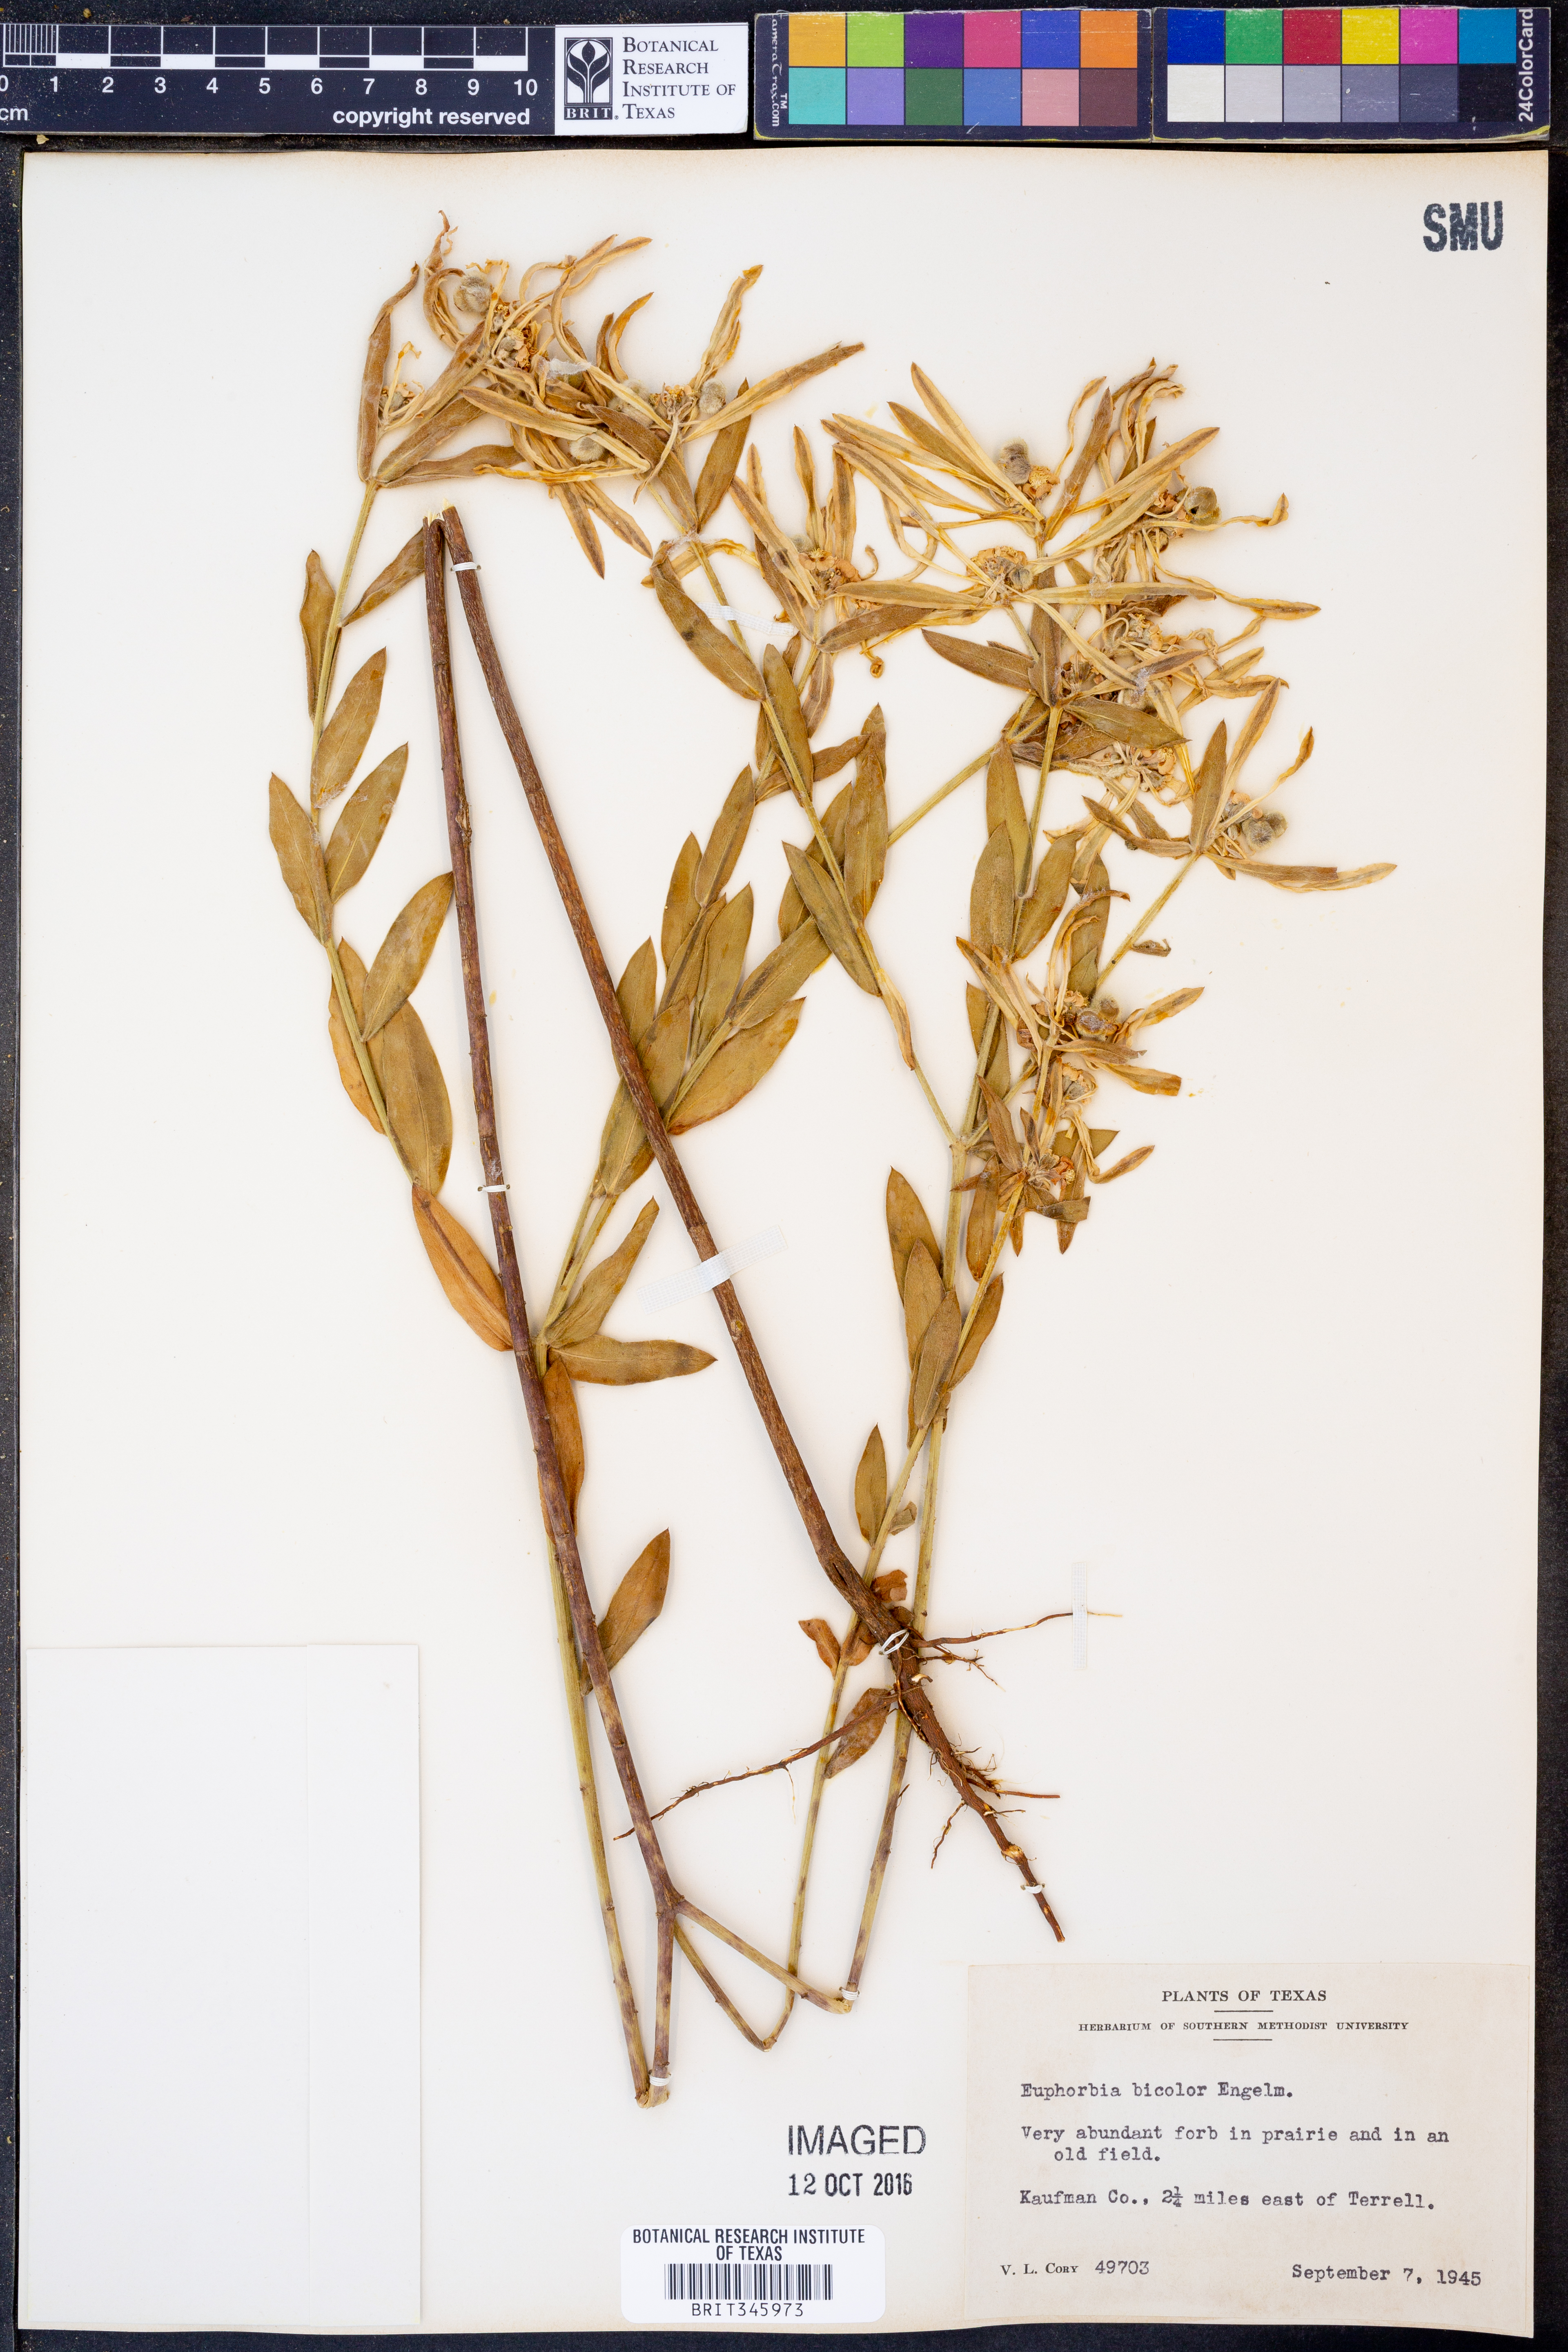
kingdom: Plantae
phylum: Tracheophyta
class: Magnoliopsida
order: Malpighiales
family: Euphorbiaceae
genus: Euphorbia
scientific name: Euphorbia bicolor
